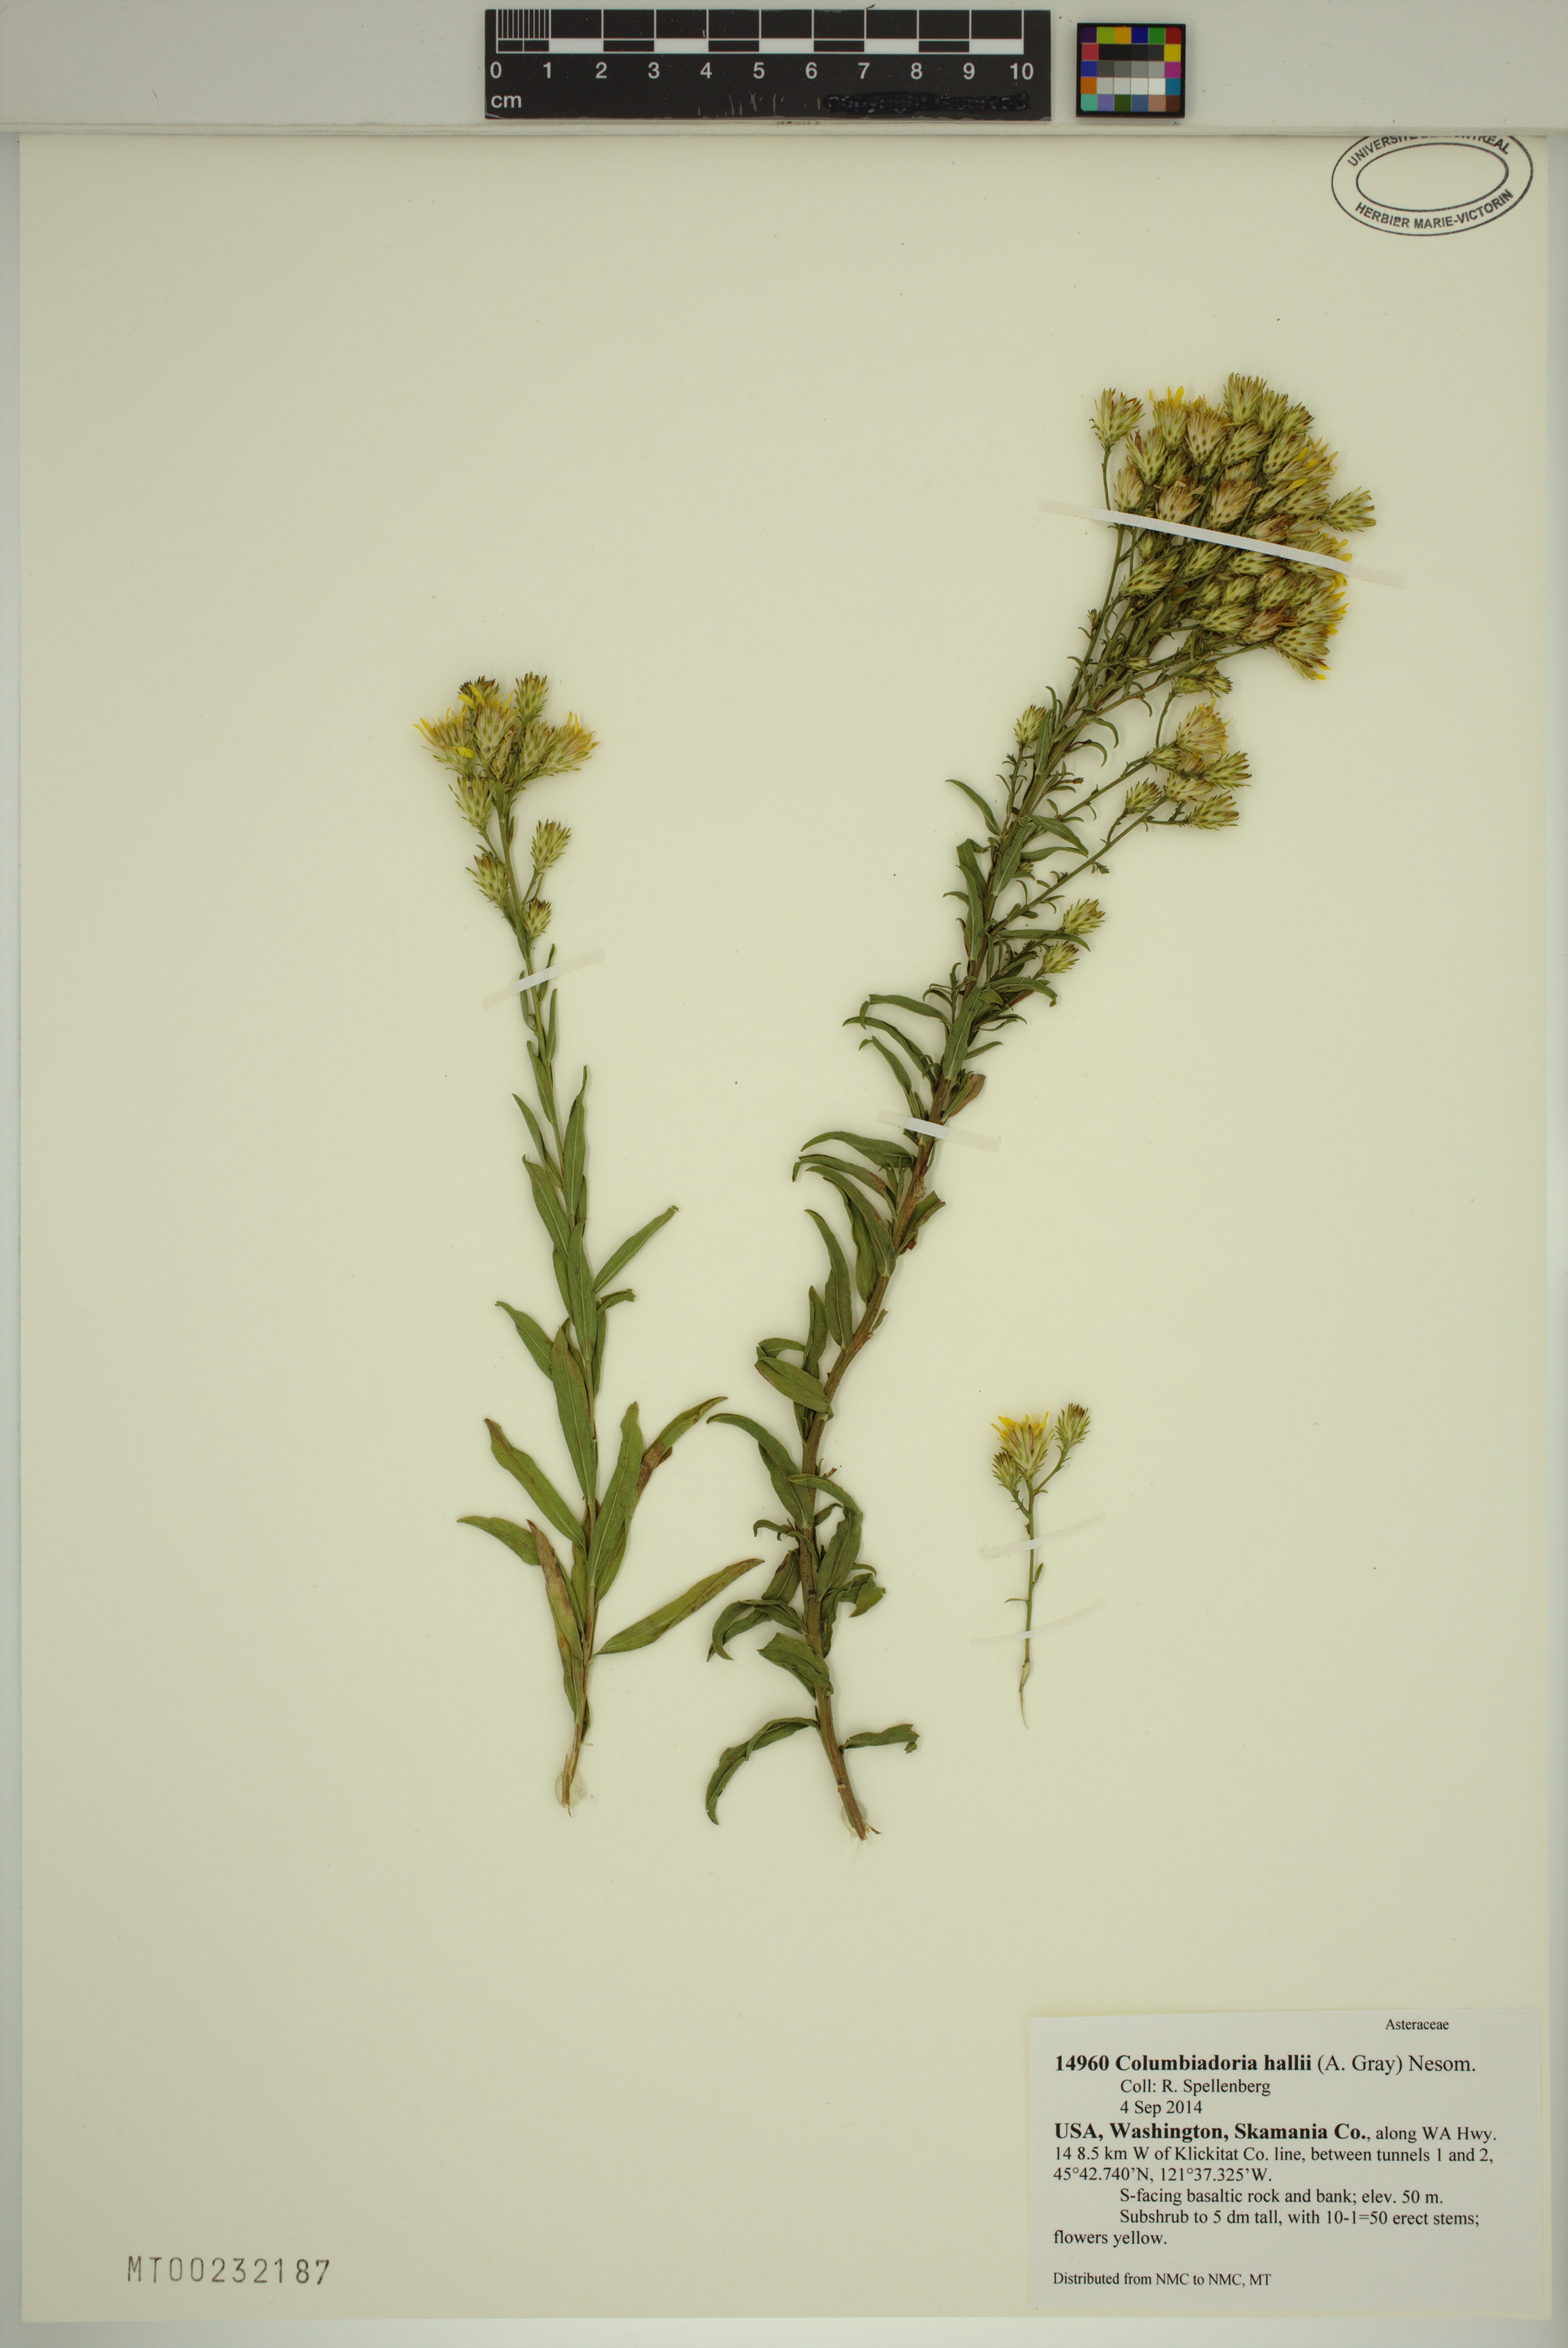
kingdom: Plantae
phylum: Tracheophyta
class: Magnoliopsida
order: Asterales
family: Asteraceae
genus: Columbiadoria
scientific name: Columbiadoria hallii
